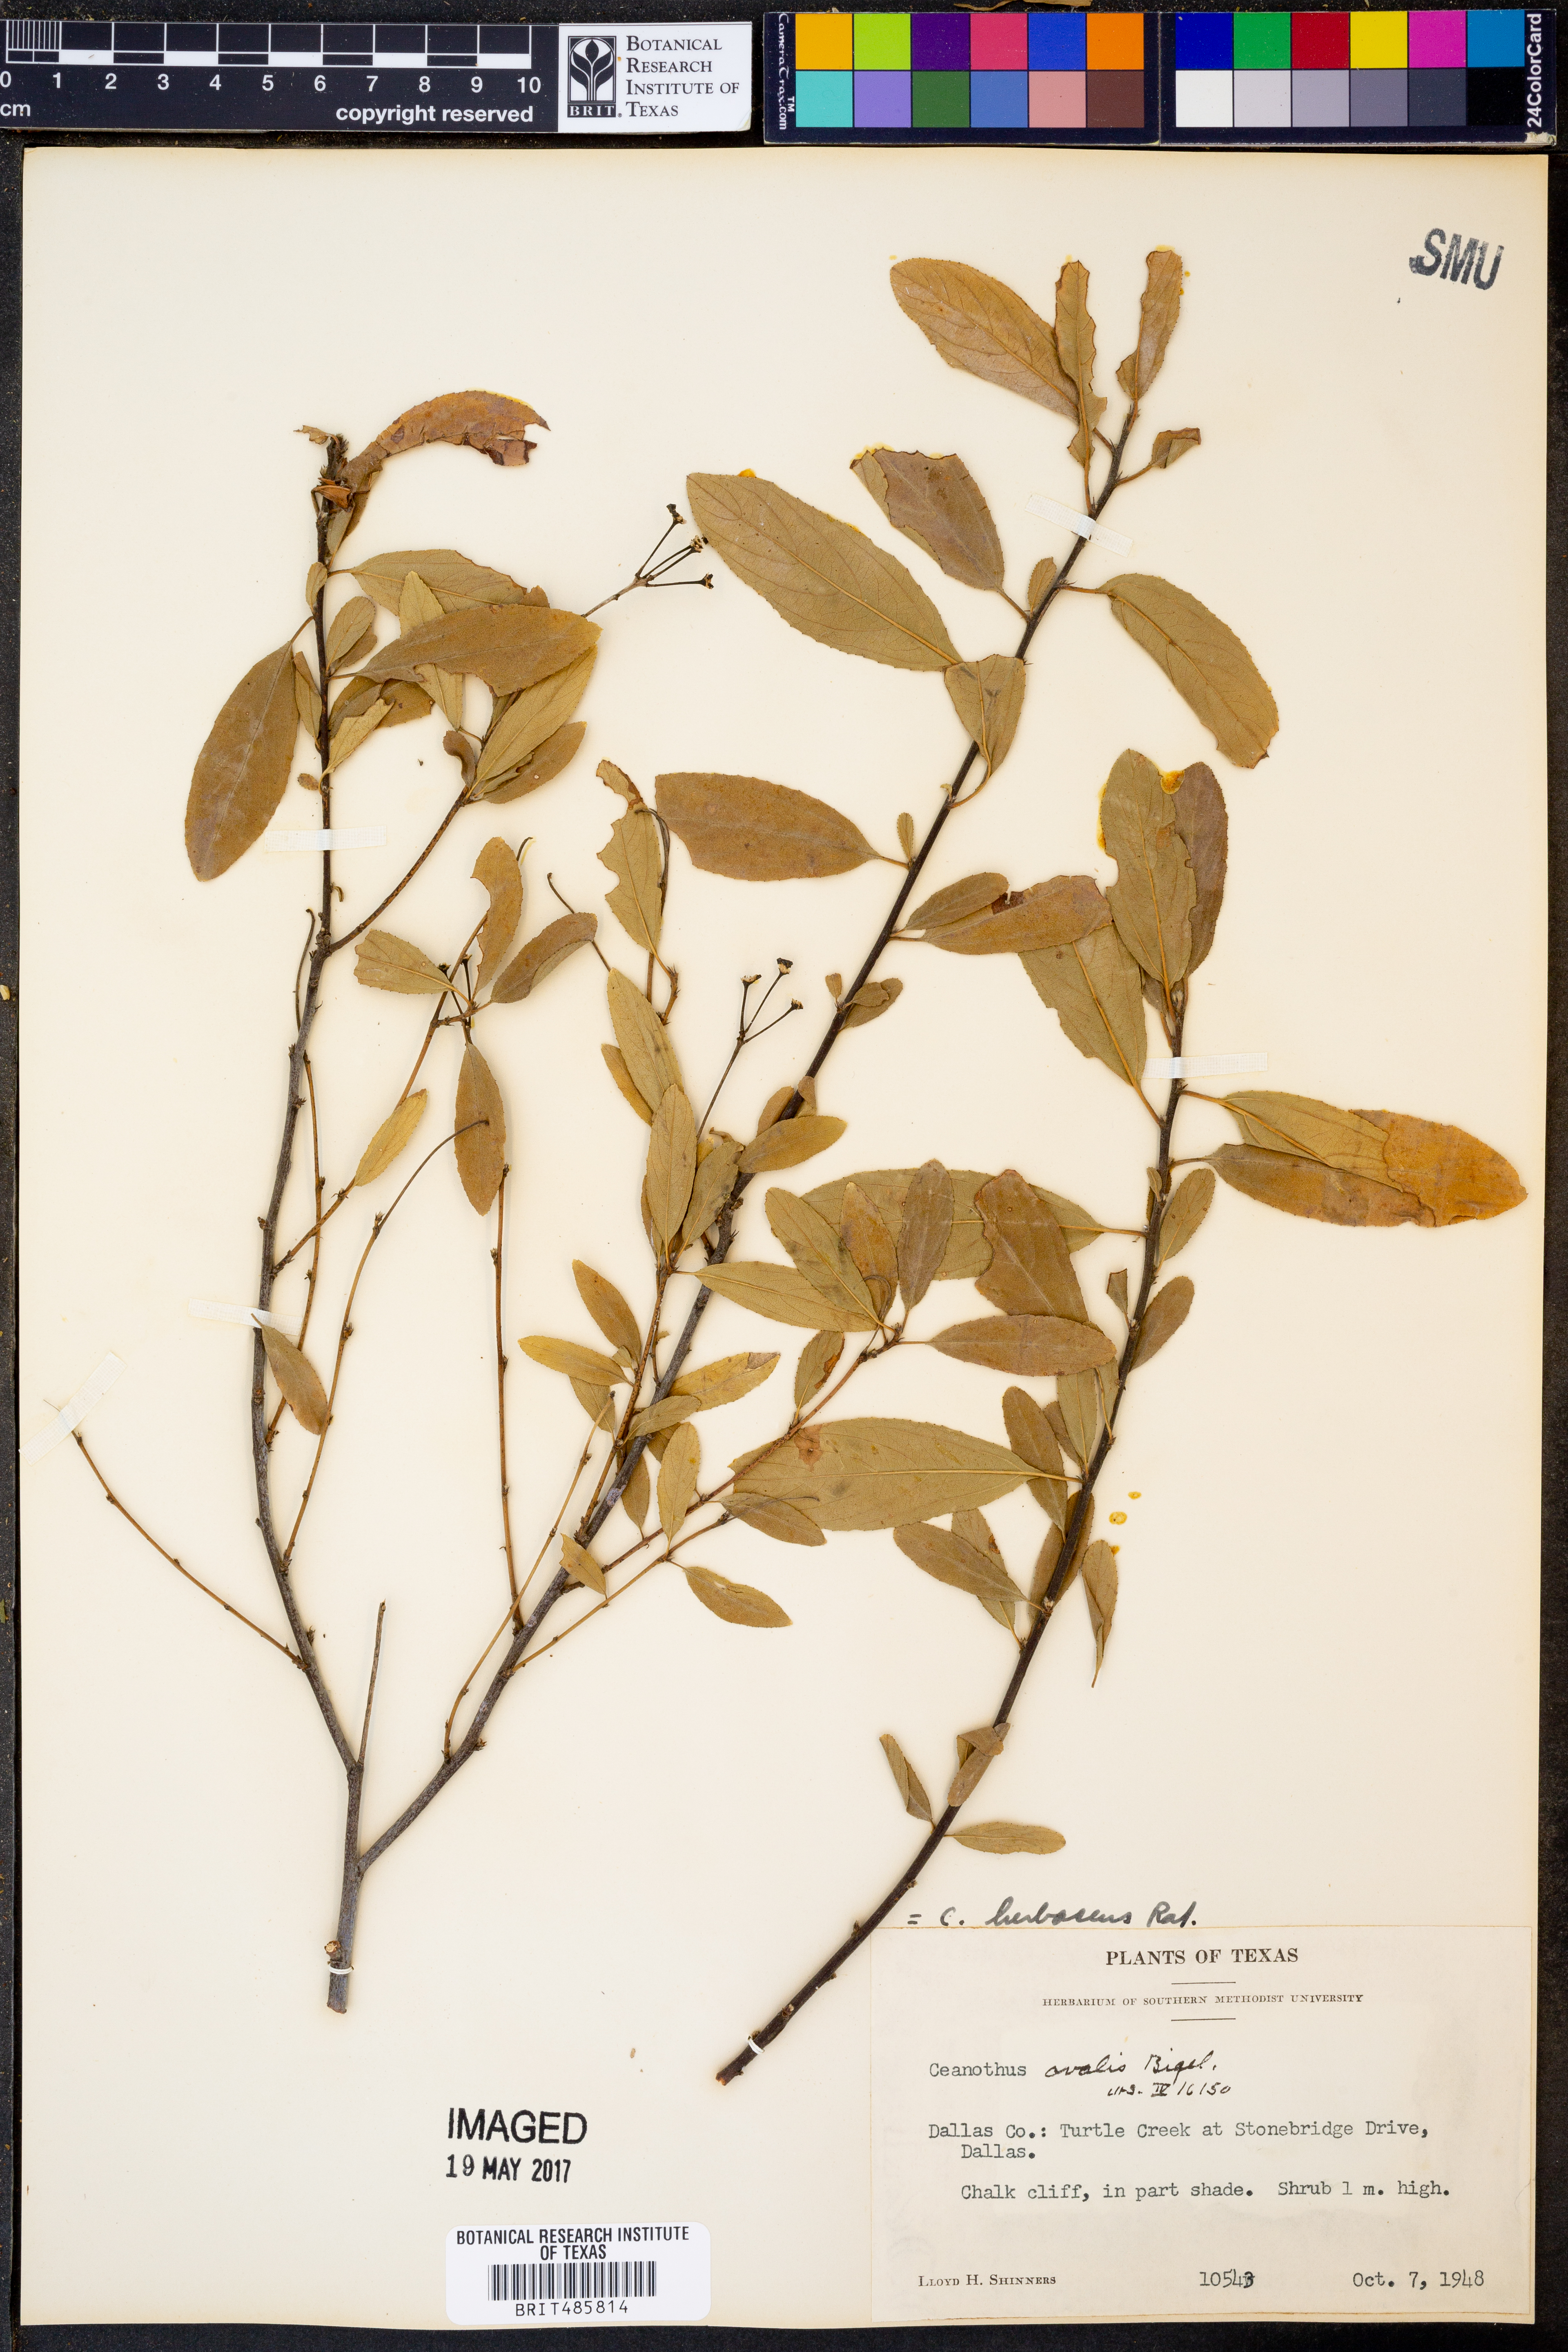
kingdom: Plantae
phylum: Tracheophyta
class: Magnoliopsida
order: Rosales
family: Rhamnaceae
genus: Ceanothus
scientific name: Ceanothus herbaceus
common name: Inland ceanothus
